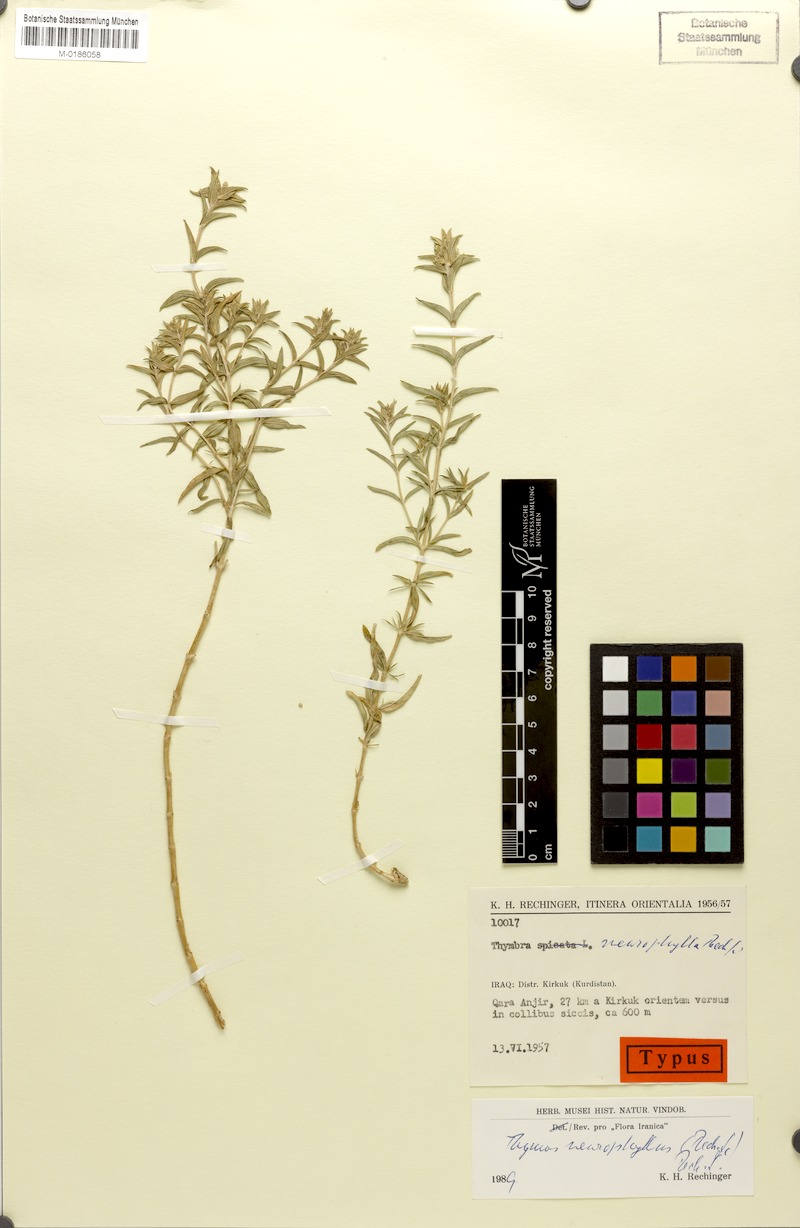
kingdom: Plantae
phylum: Tracheophyta
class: Magnoliopsida
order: Lamiales
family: Lamiaceae
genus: Thymus
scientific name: Thymus neurophyllus
